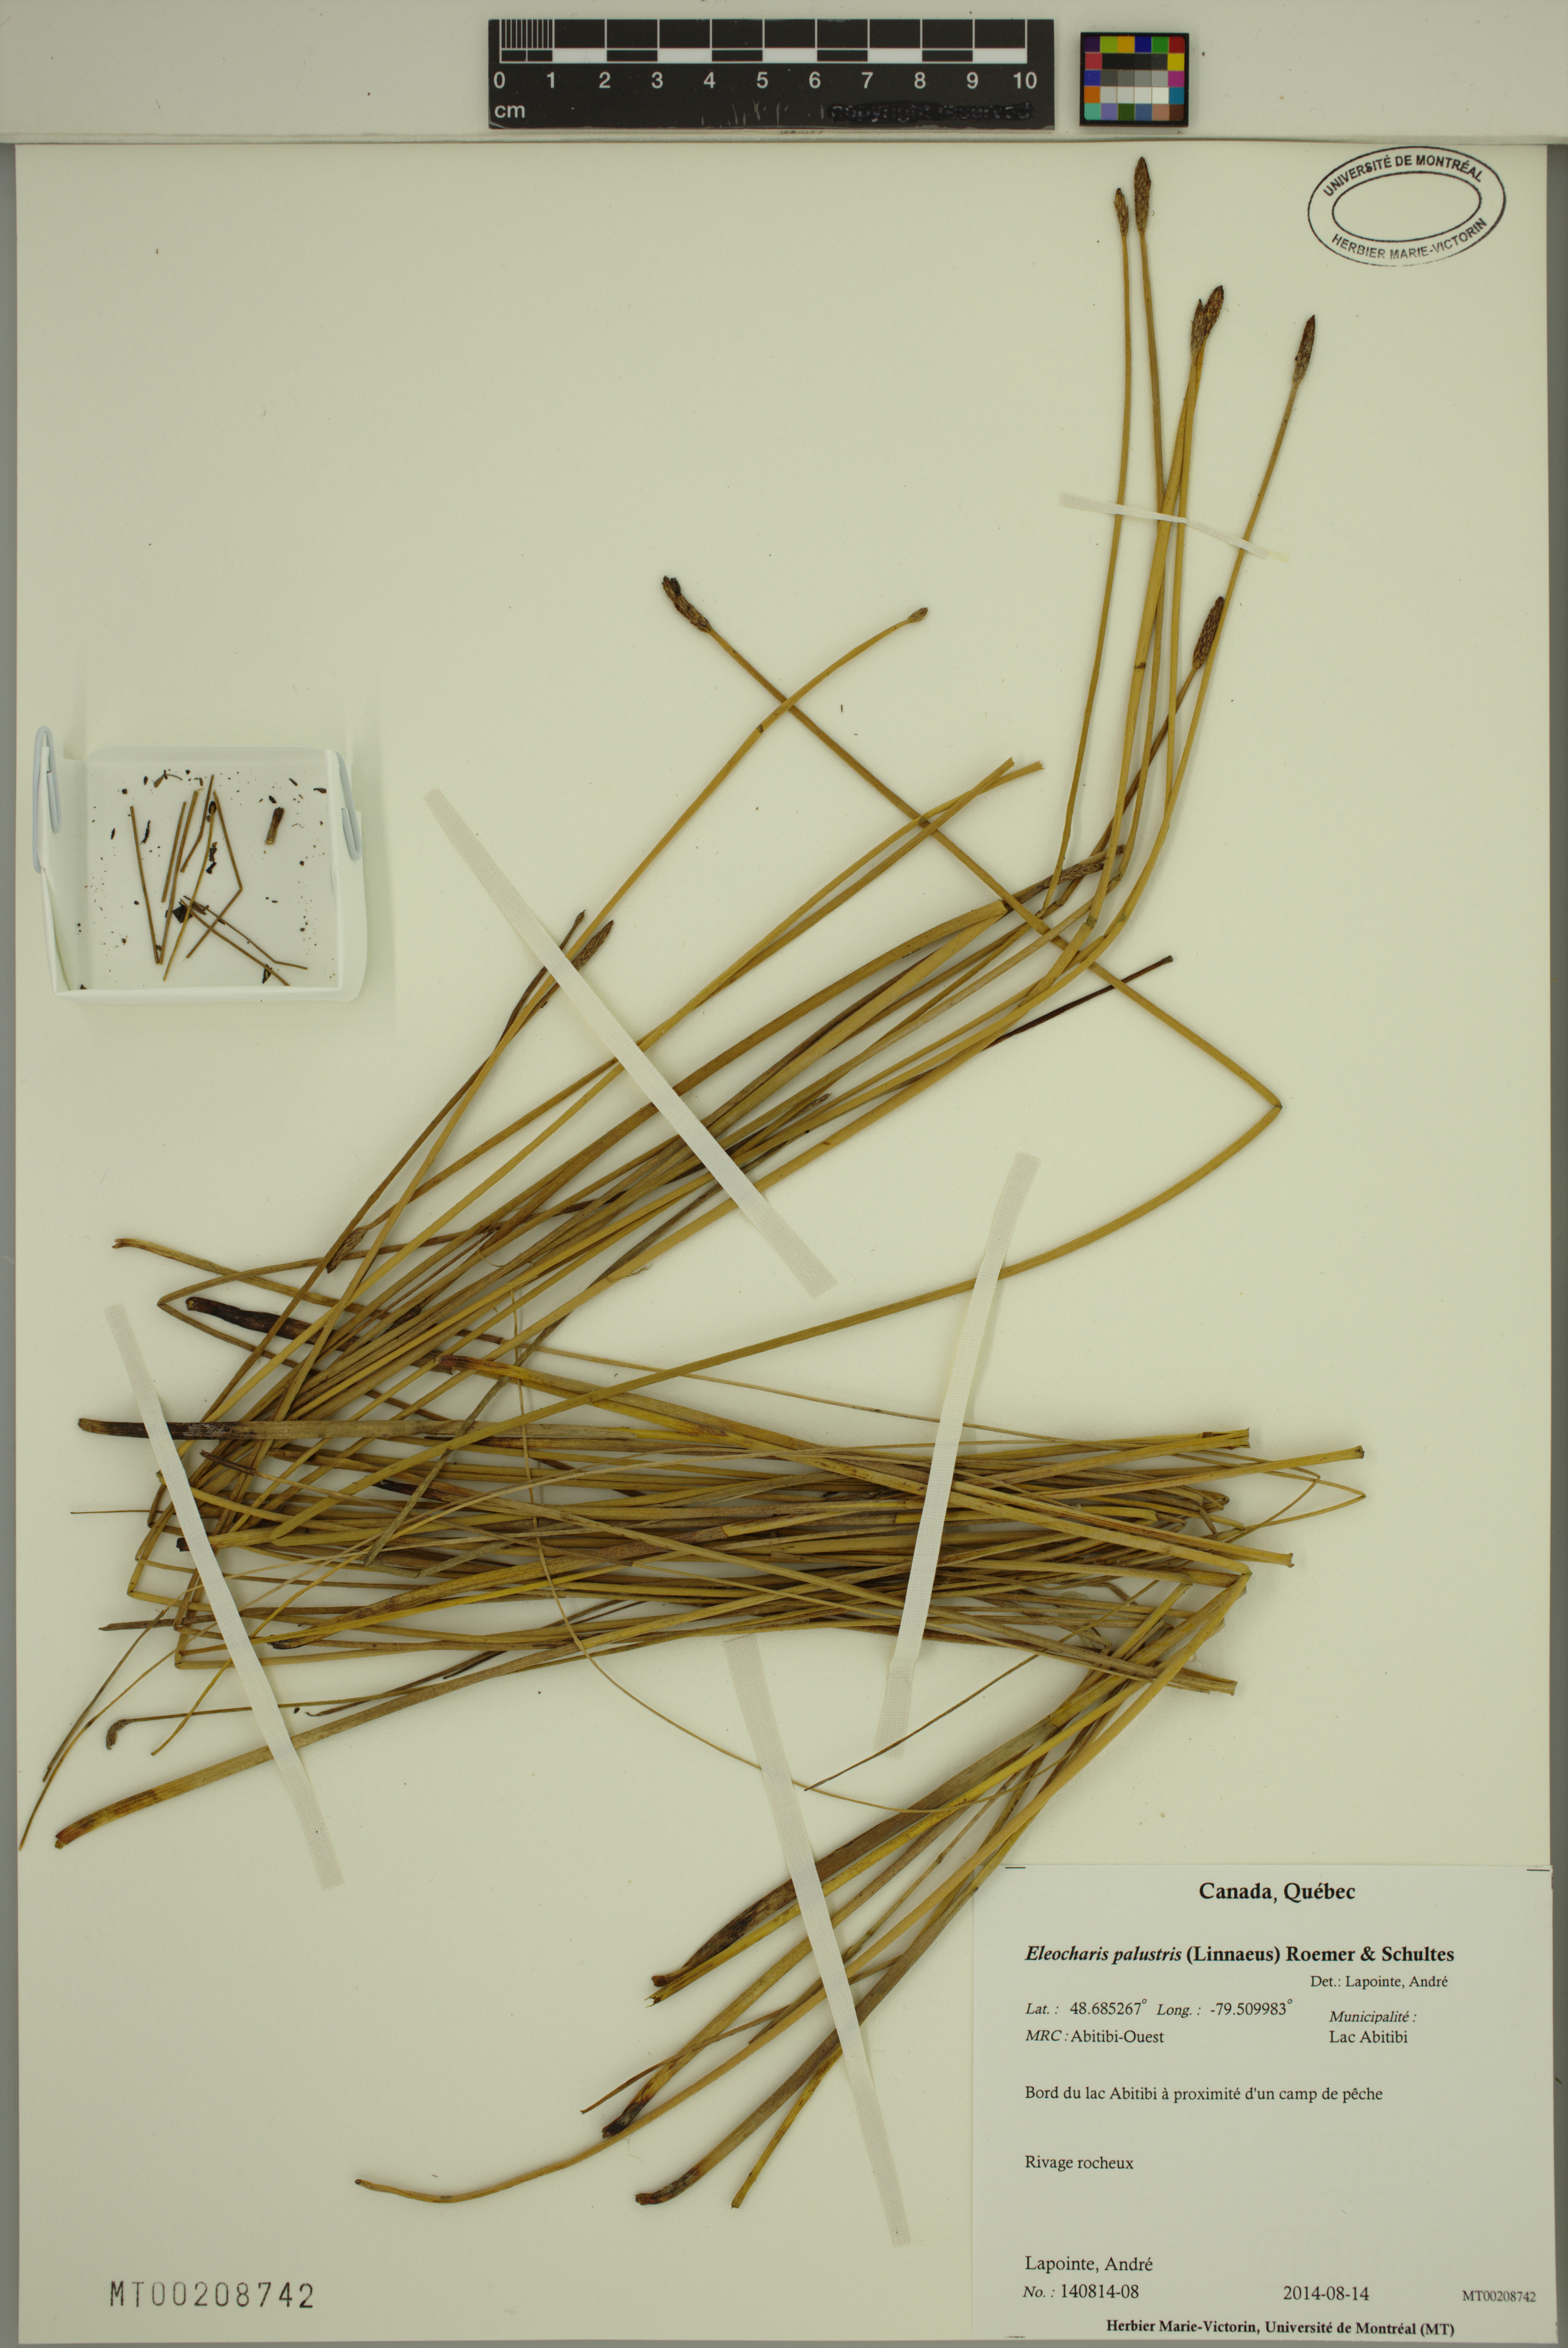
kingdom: Plantae
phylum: Tracheophyta
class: Liliopsida
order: Poales
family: Cyperaceae
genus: Eleocharis
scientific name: Eleocharis palustris
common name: Common spike-rush
